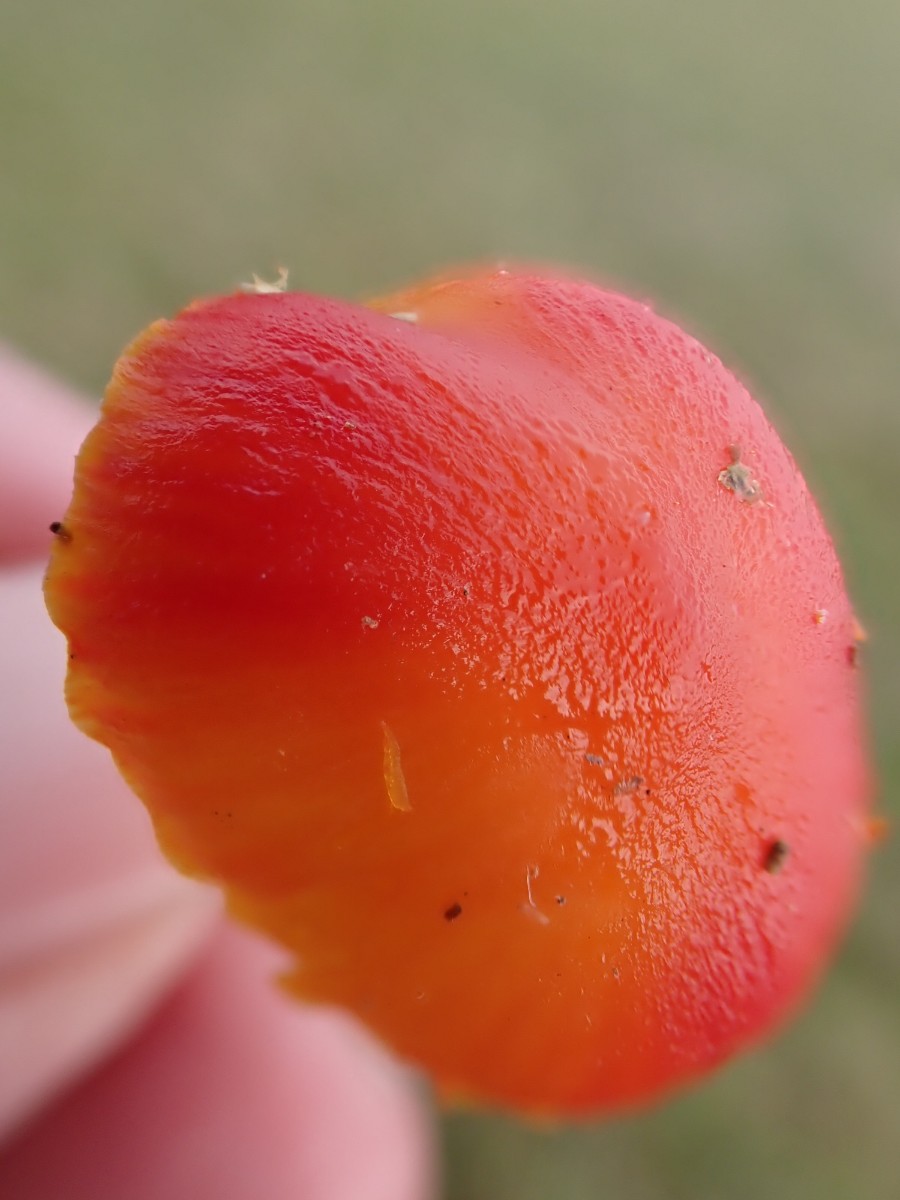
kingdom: Fungi
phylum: Basidiomycota
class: Agaricomycetes
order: Agaricales
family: Hygrophoraceae
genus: Hygrocybe
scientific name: Hygrocybe miniata
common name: mønje-vokshat
